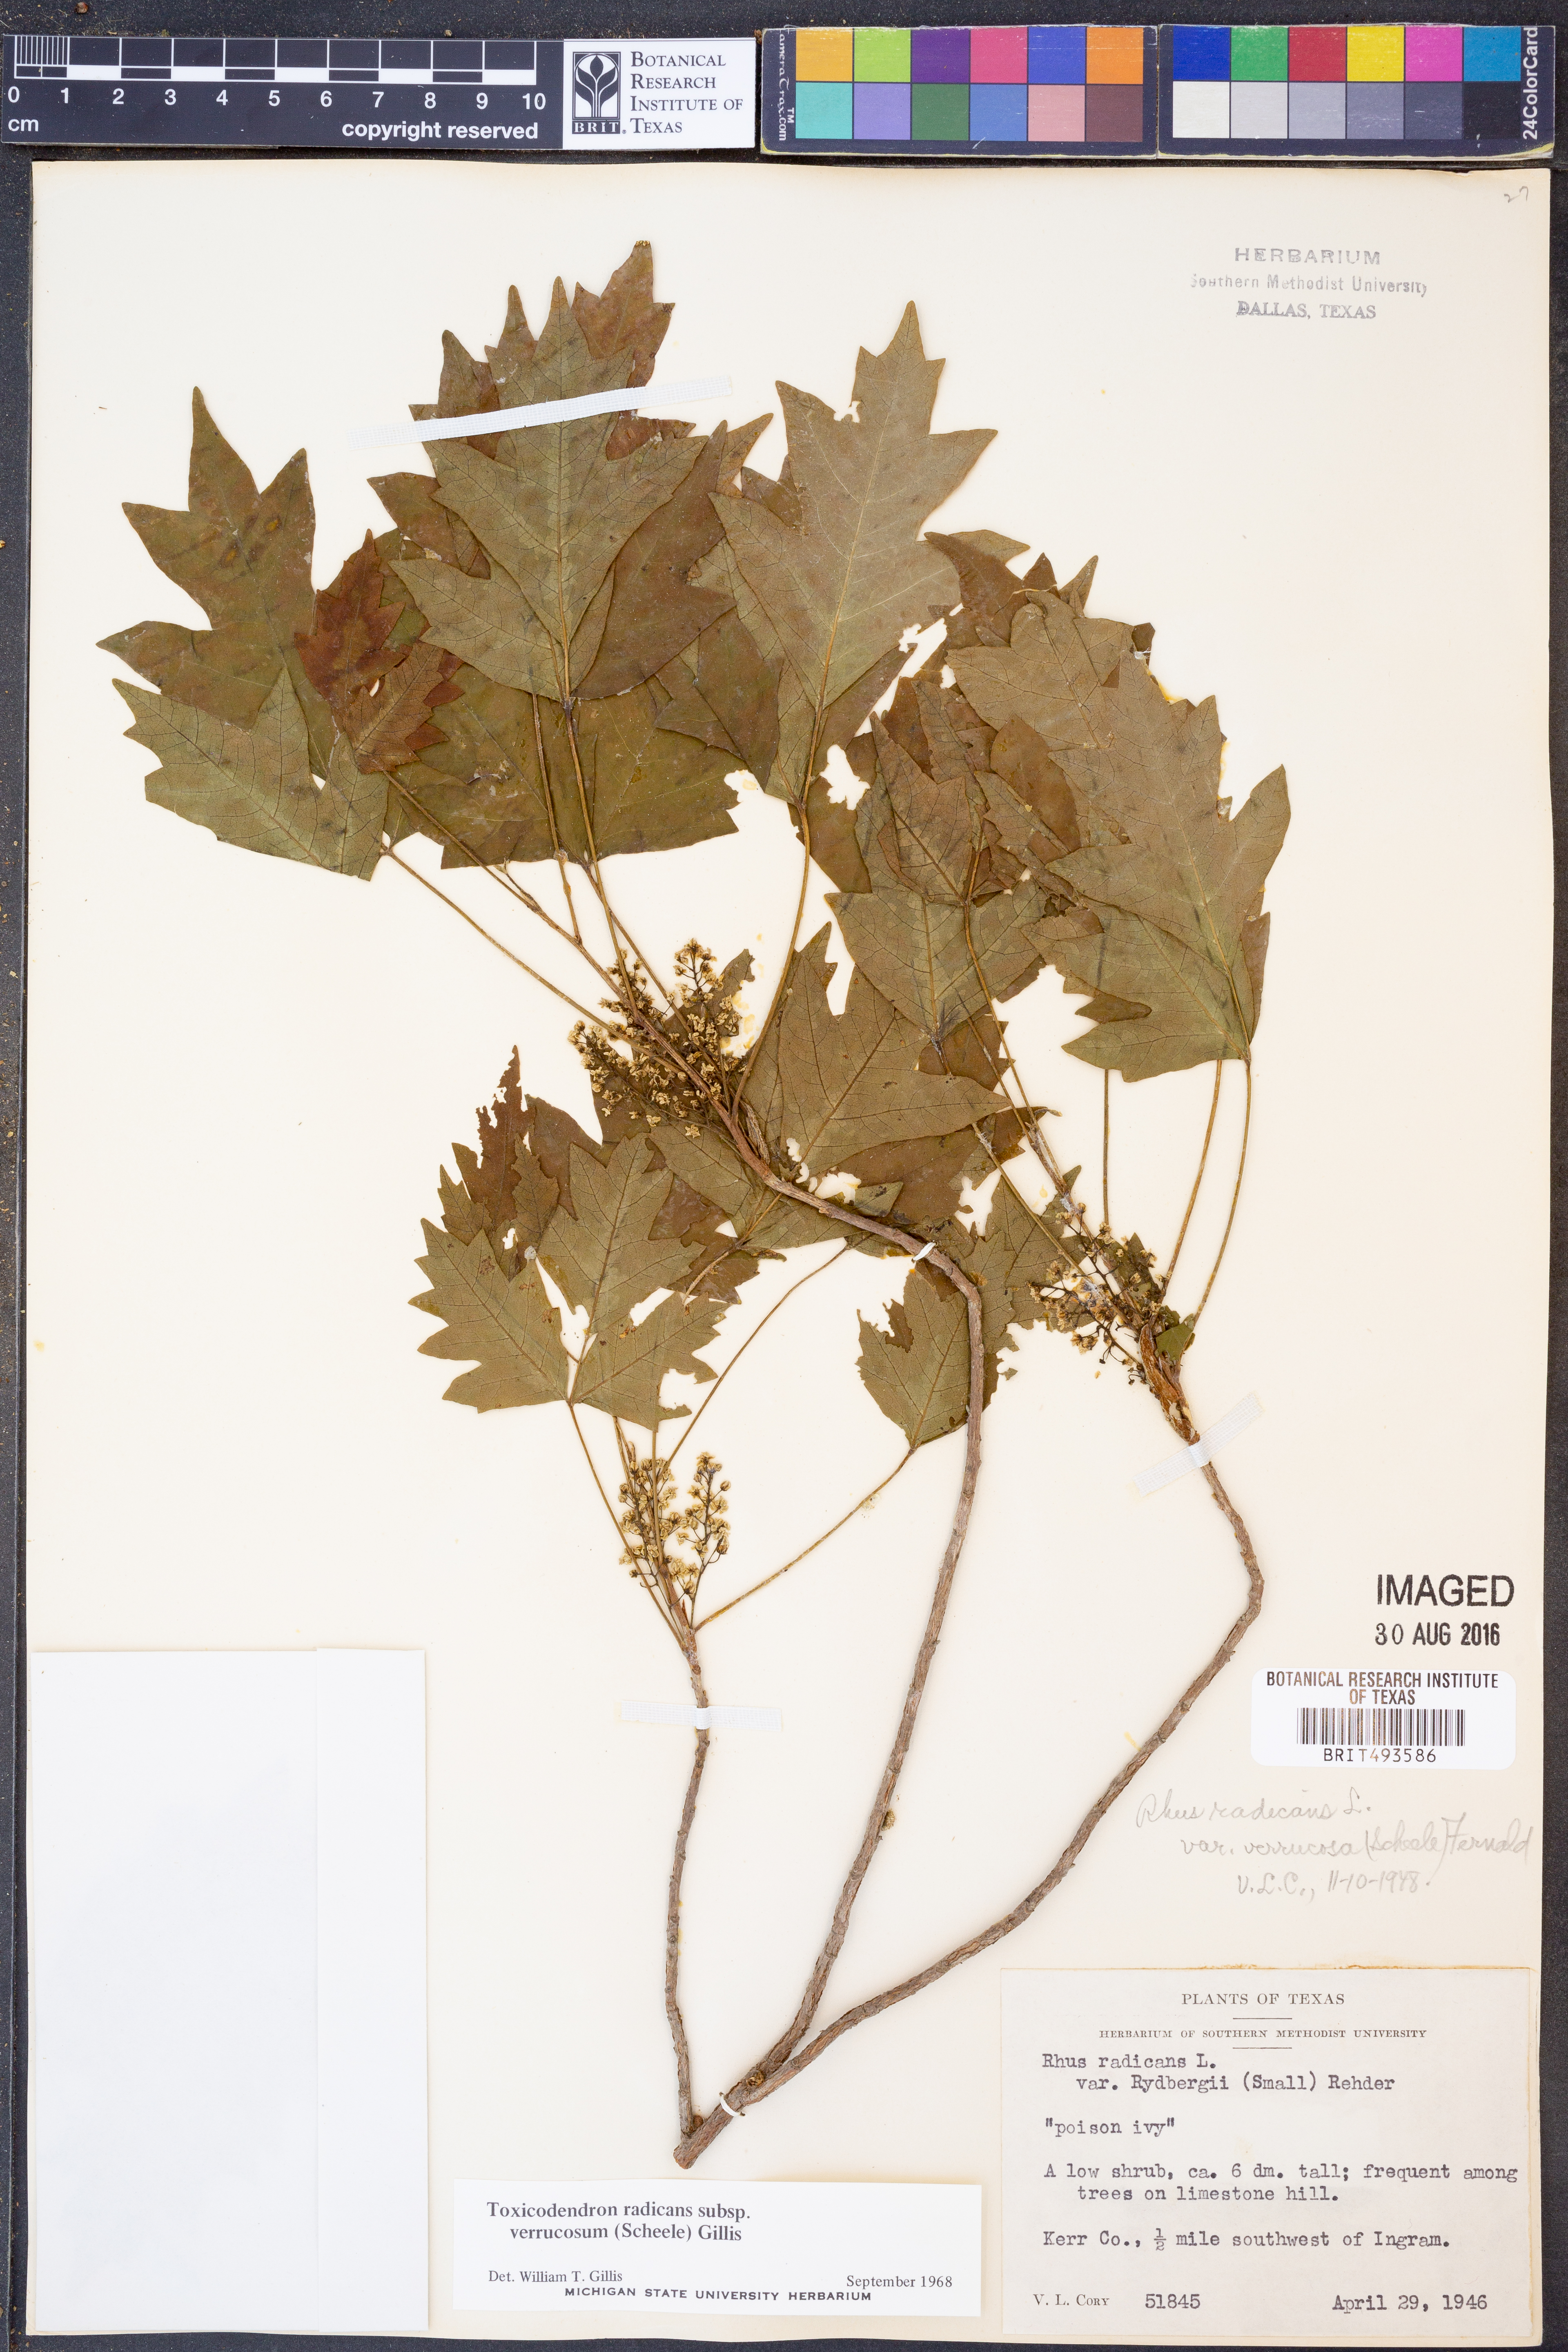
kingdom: Plantae
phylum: Tracheophyta
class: Magnoliopsida
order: Sapindales
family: Anacardiaceae
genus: Toxicodendron
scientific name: Toxicodendron radicans
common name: Poison ivy
